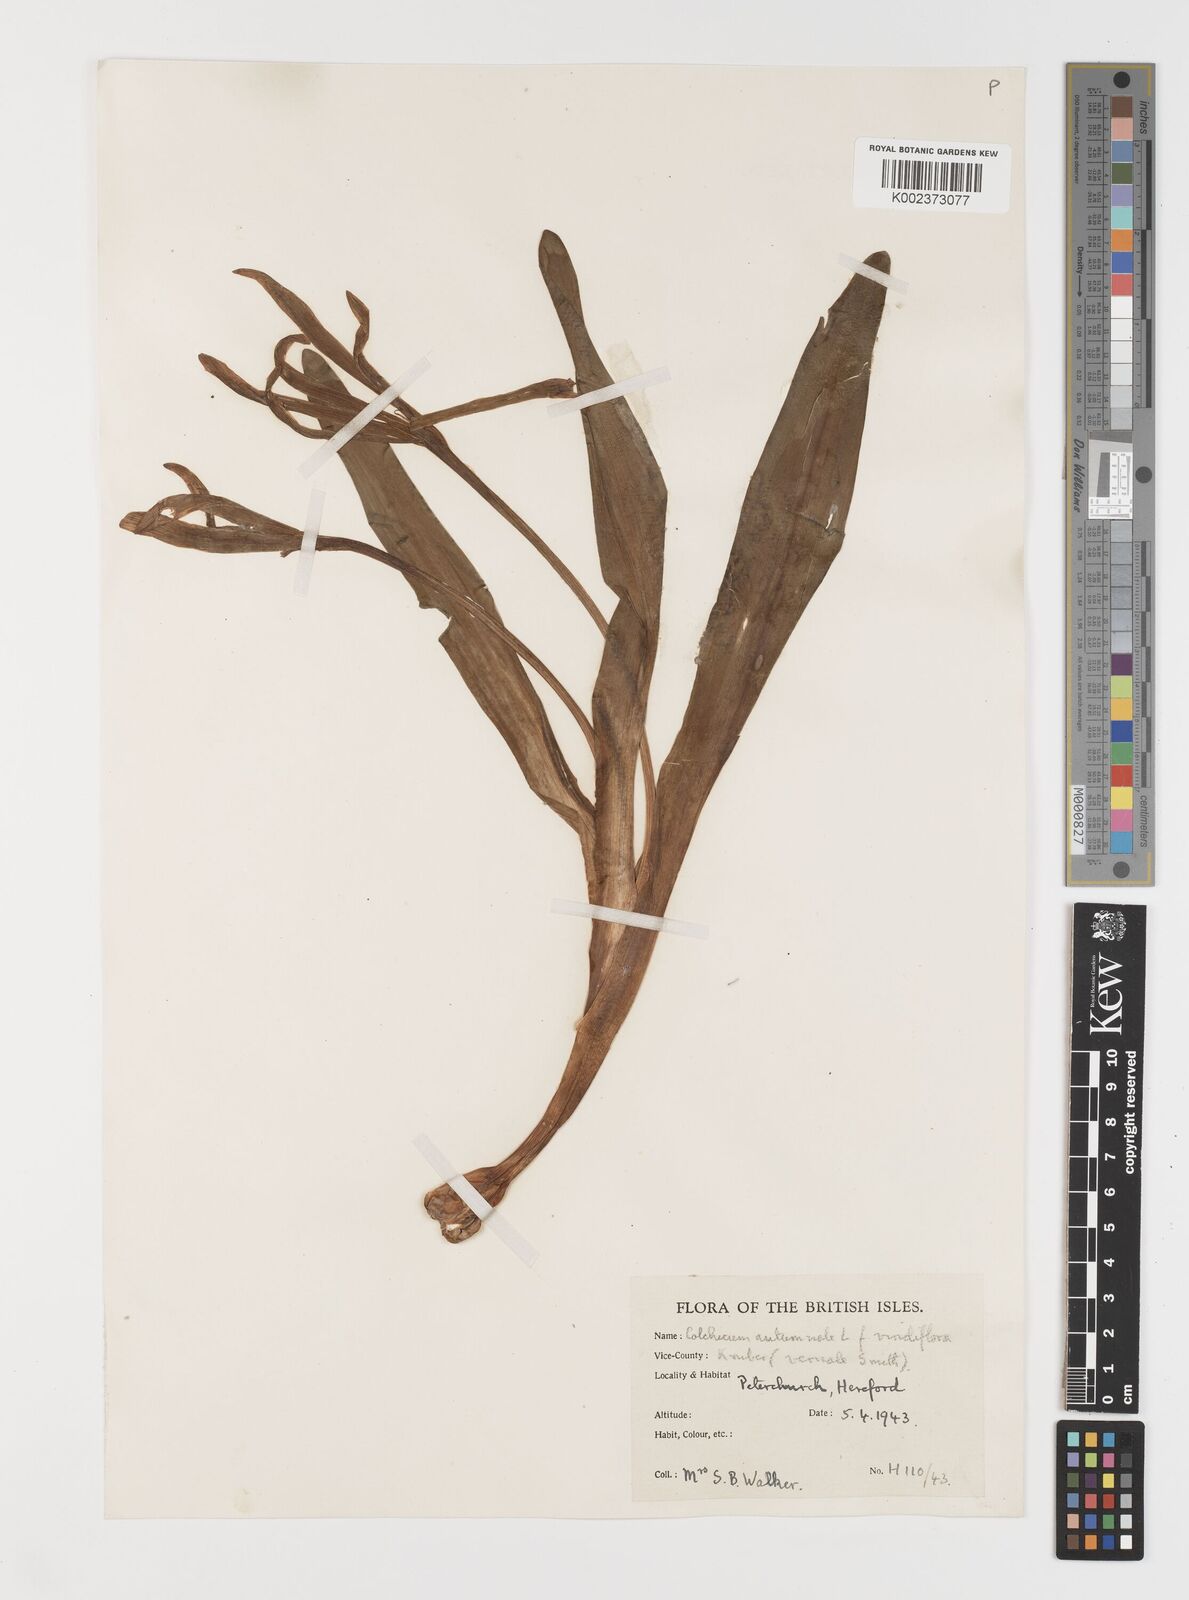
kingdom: Plantae
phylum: Tracheophyta
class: Liliopsida
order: Liliales
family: Colchicaceae
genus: Colchicum
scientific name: Colchicum autumnale
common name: Autumn crocus
